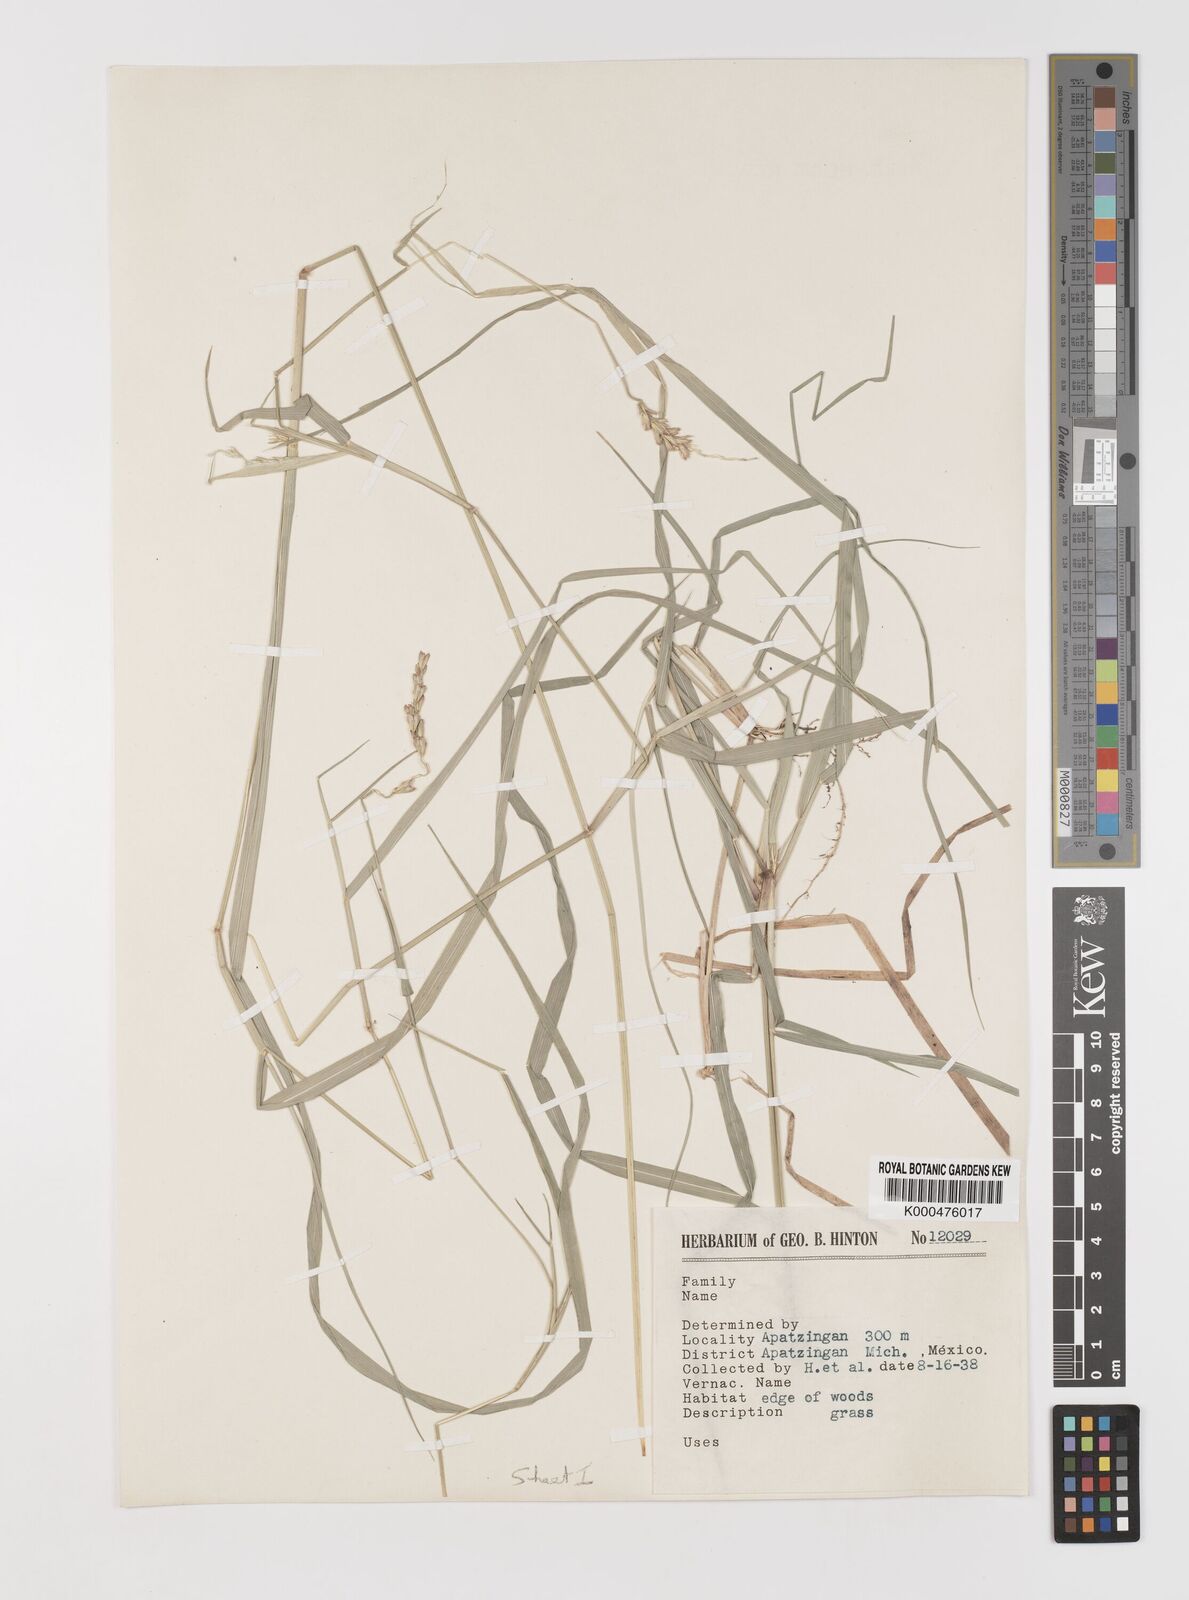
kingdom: Plantae
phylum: Tracheophyta
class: Liliopsida
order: Poales
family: Poaceae
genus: Hilaria
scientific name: Hilaria swallenii
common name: Swallen's curly-mesquite
